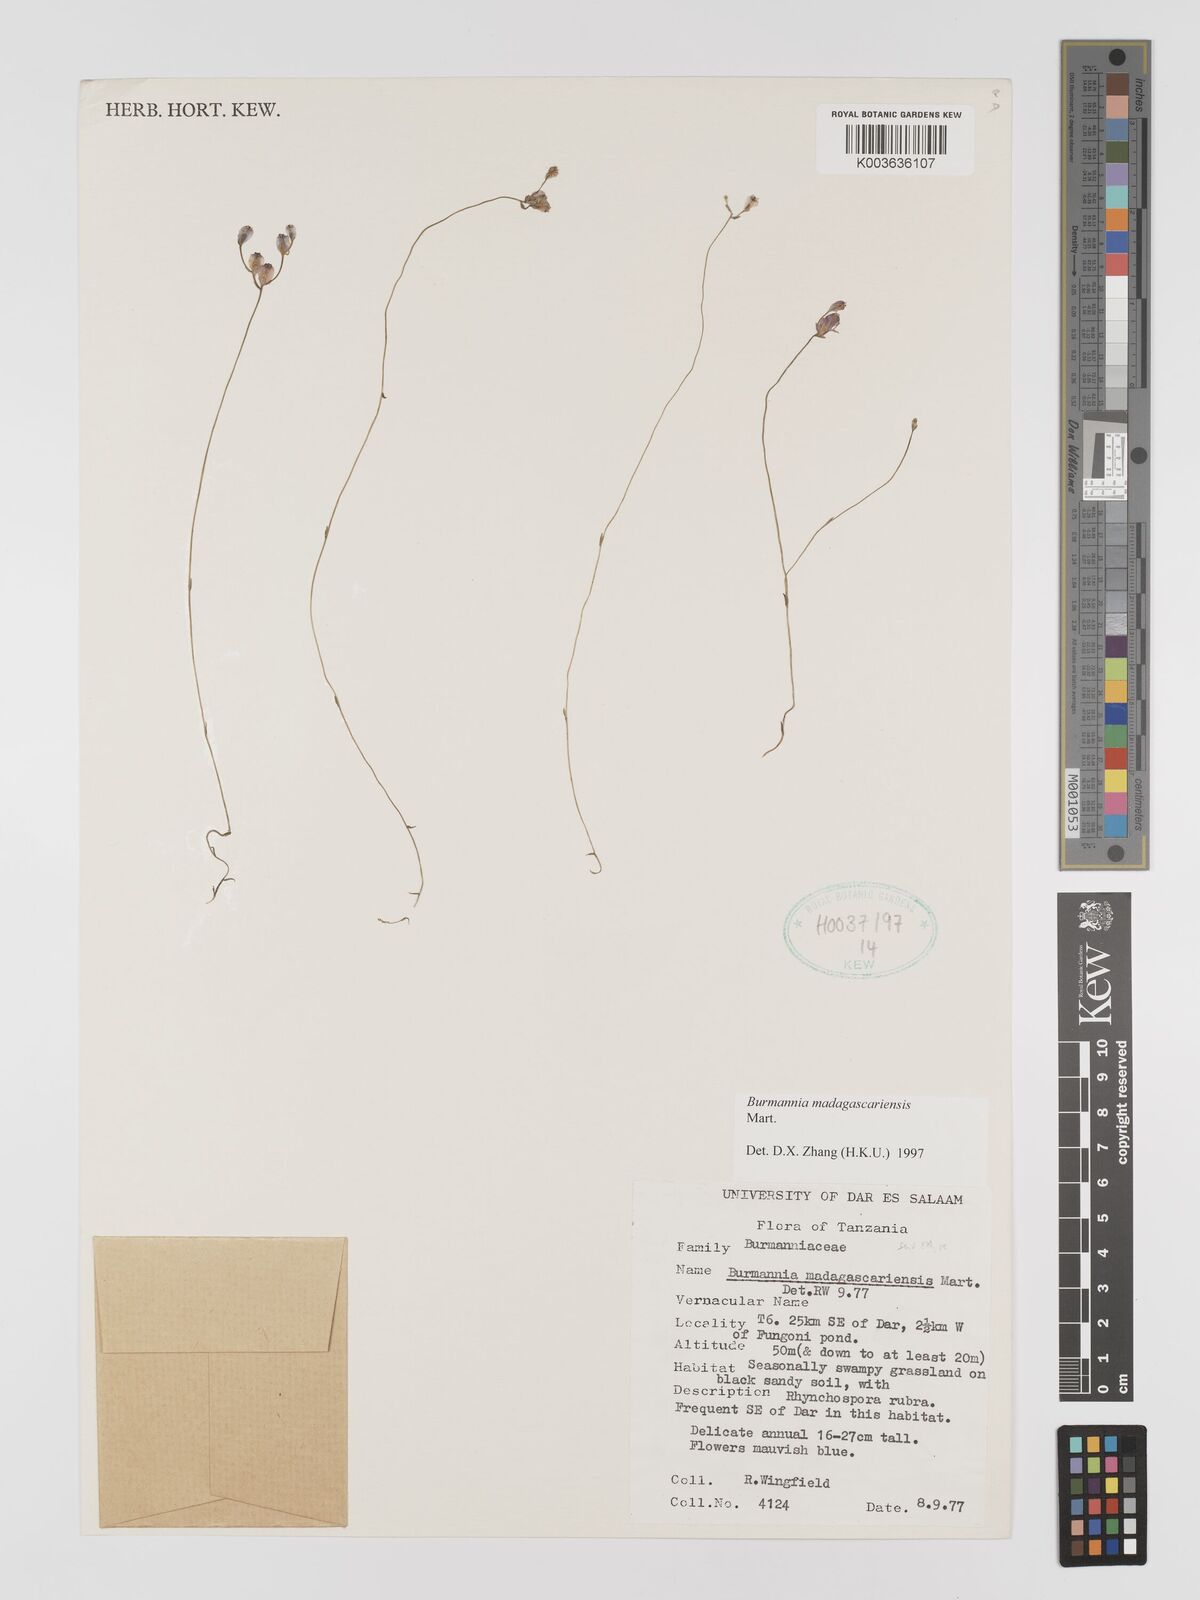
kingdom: Plantae
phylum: Tracheophyta
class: Liliopsida
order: Dioscoreales
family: Burmanniaceae
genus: Burmannia
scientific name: Burmannia madagascariensis
